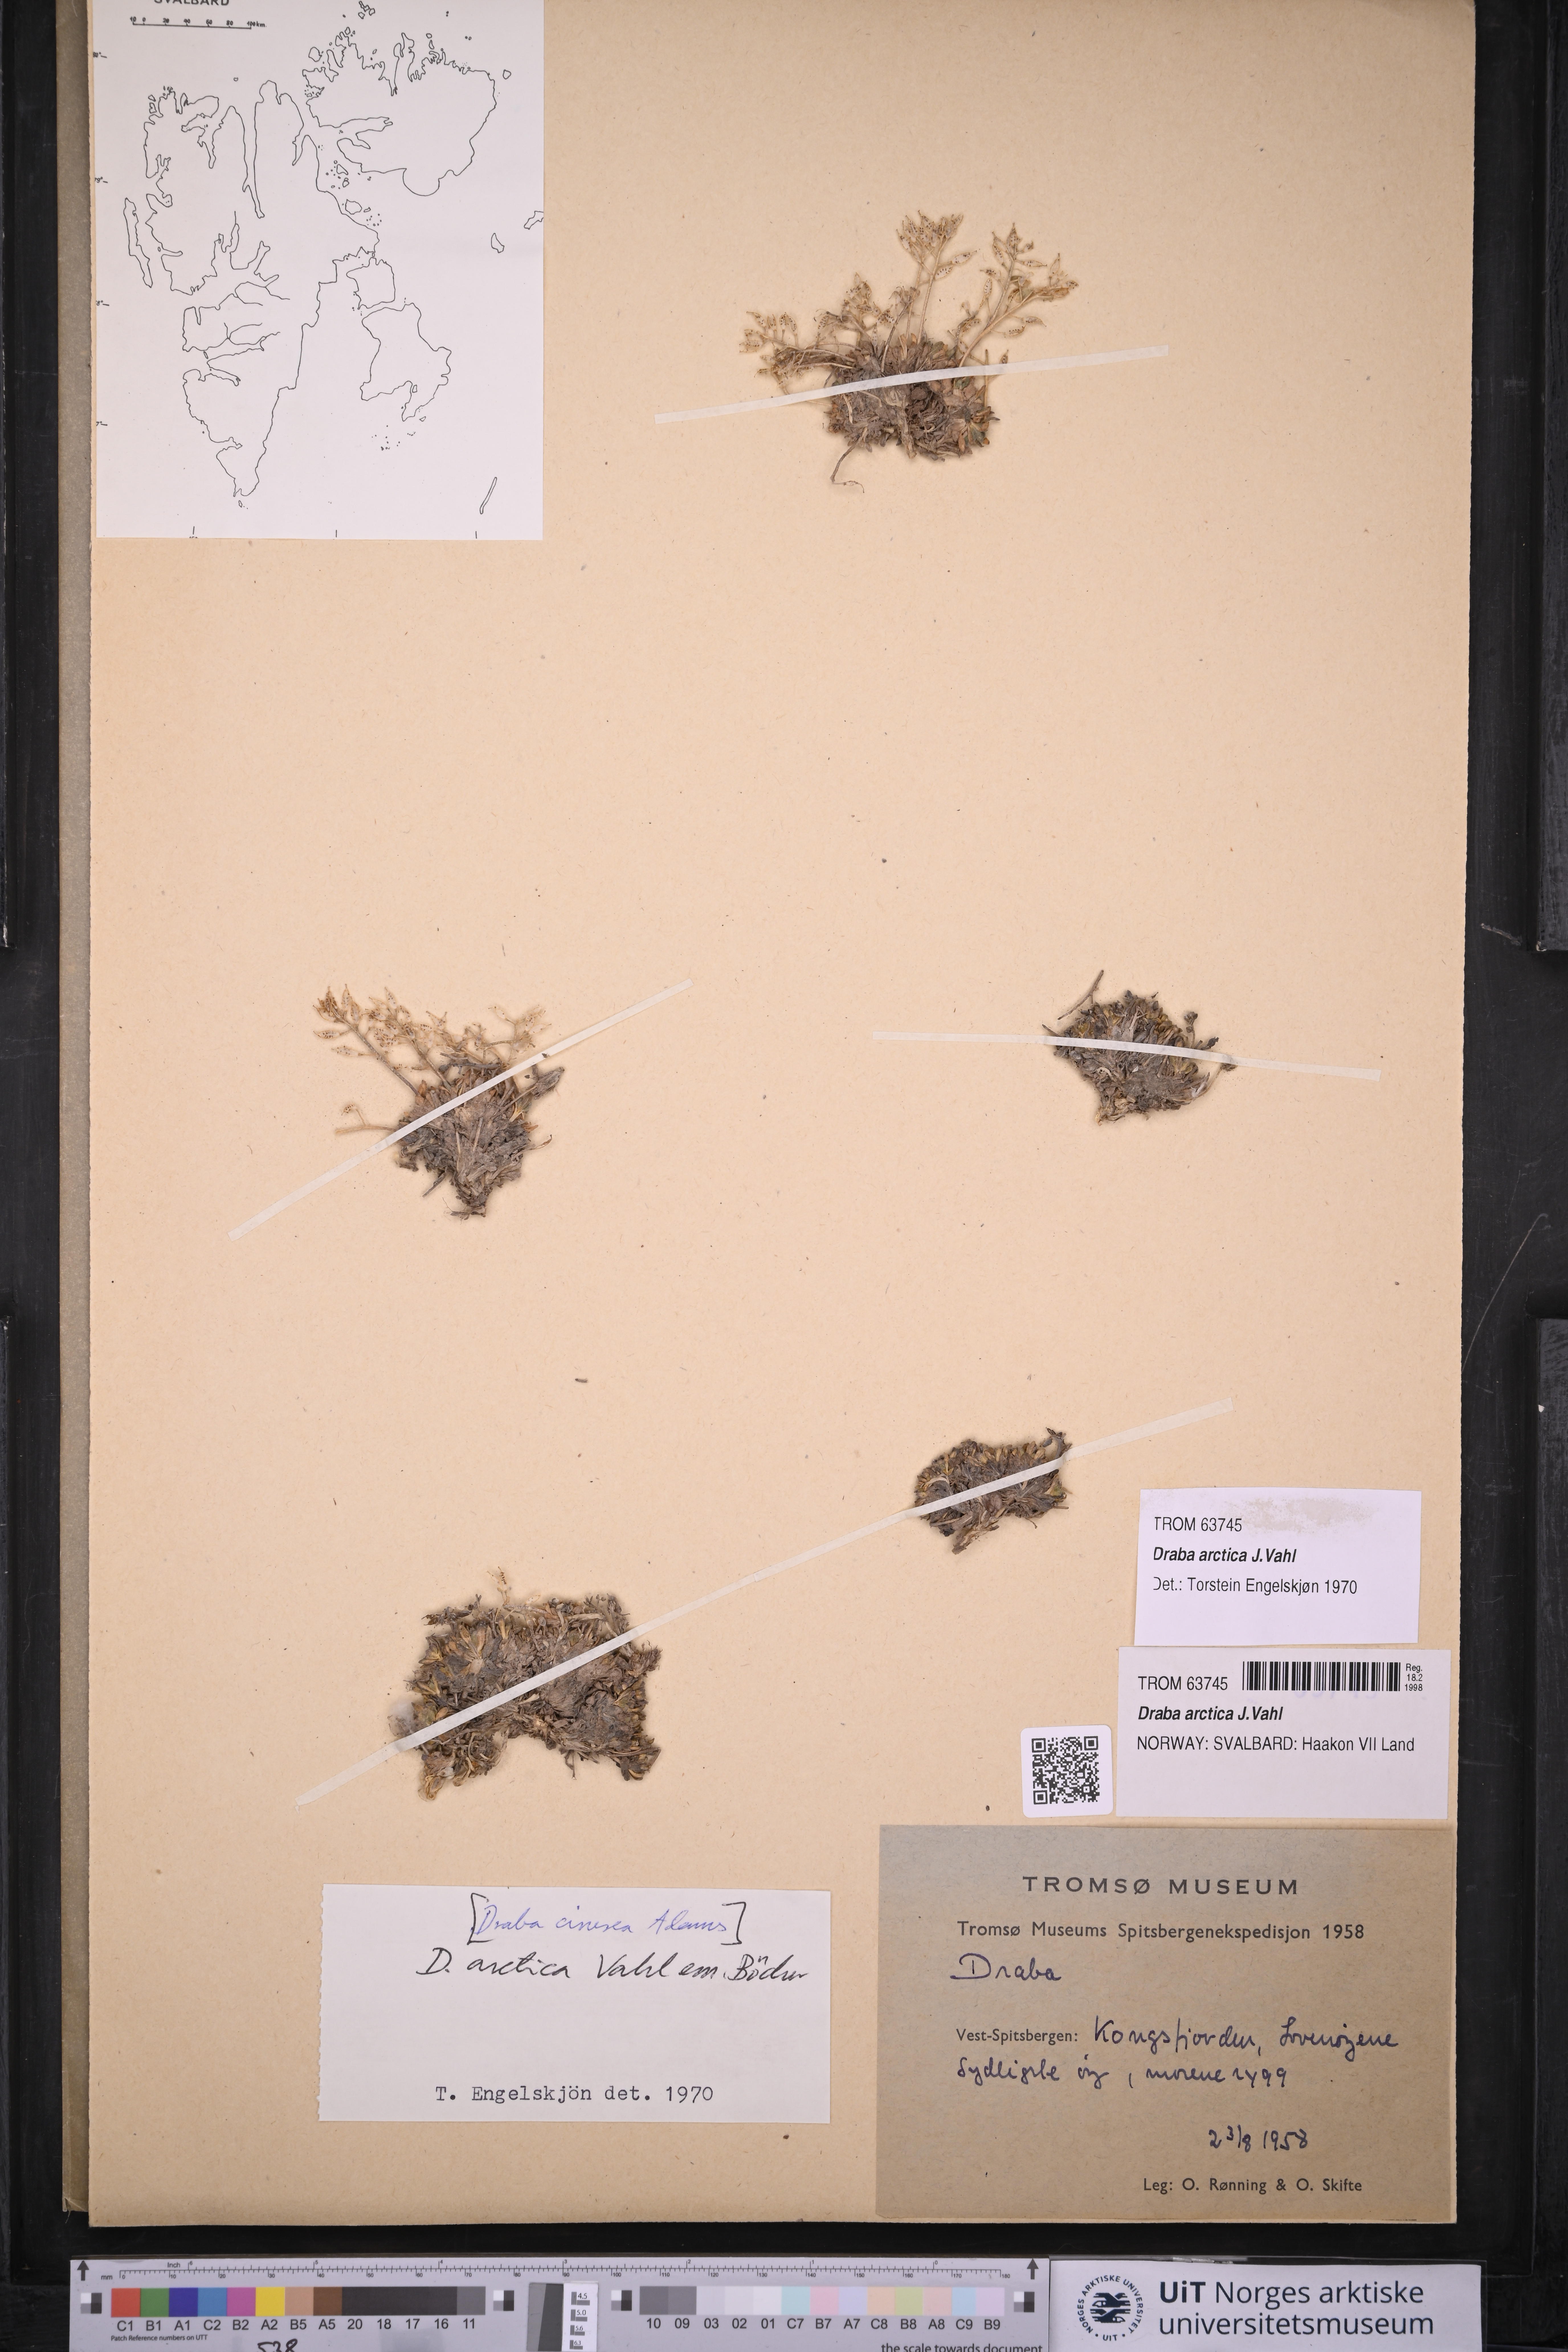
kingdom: Plantae
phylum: Tracheophyta
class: Magnoliopsida
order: Brassicales
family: Brassicaceae
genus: Draba
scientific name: Draba arctica
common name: Arctic draba
